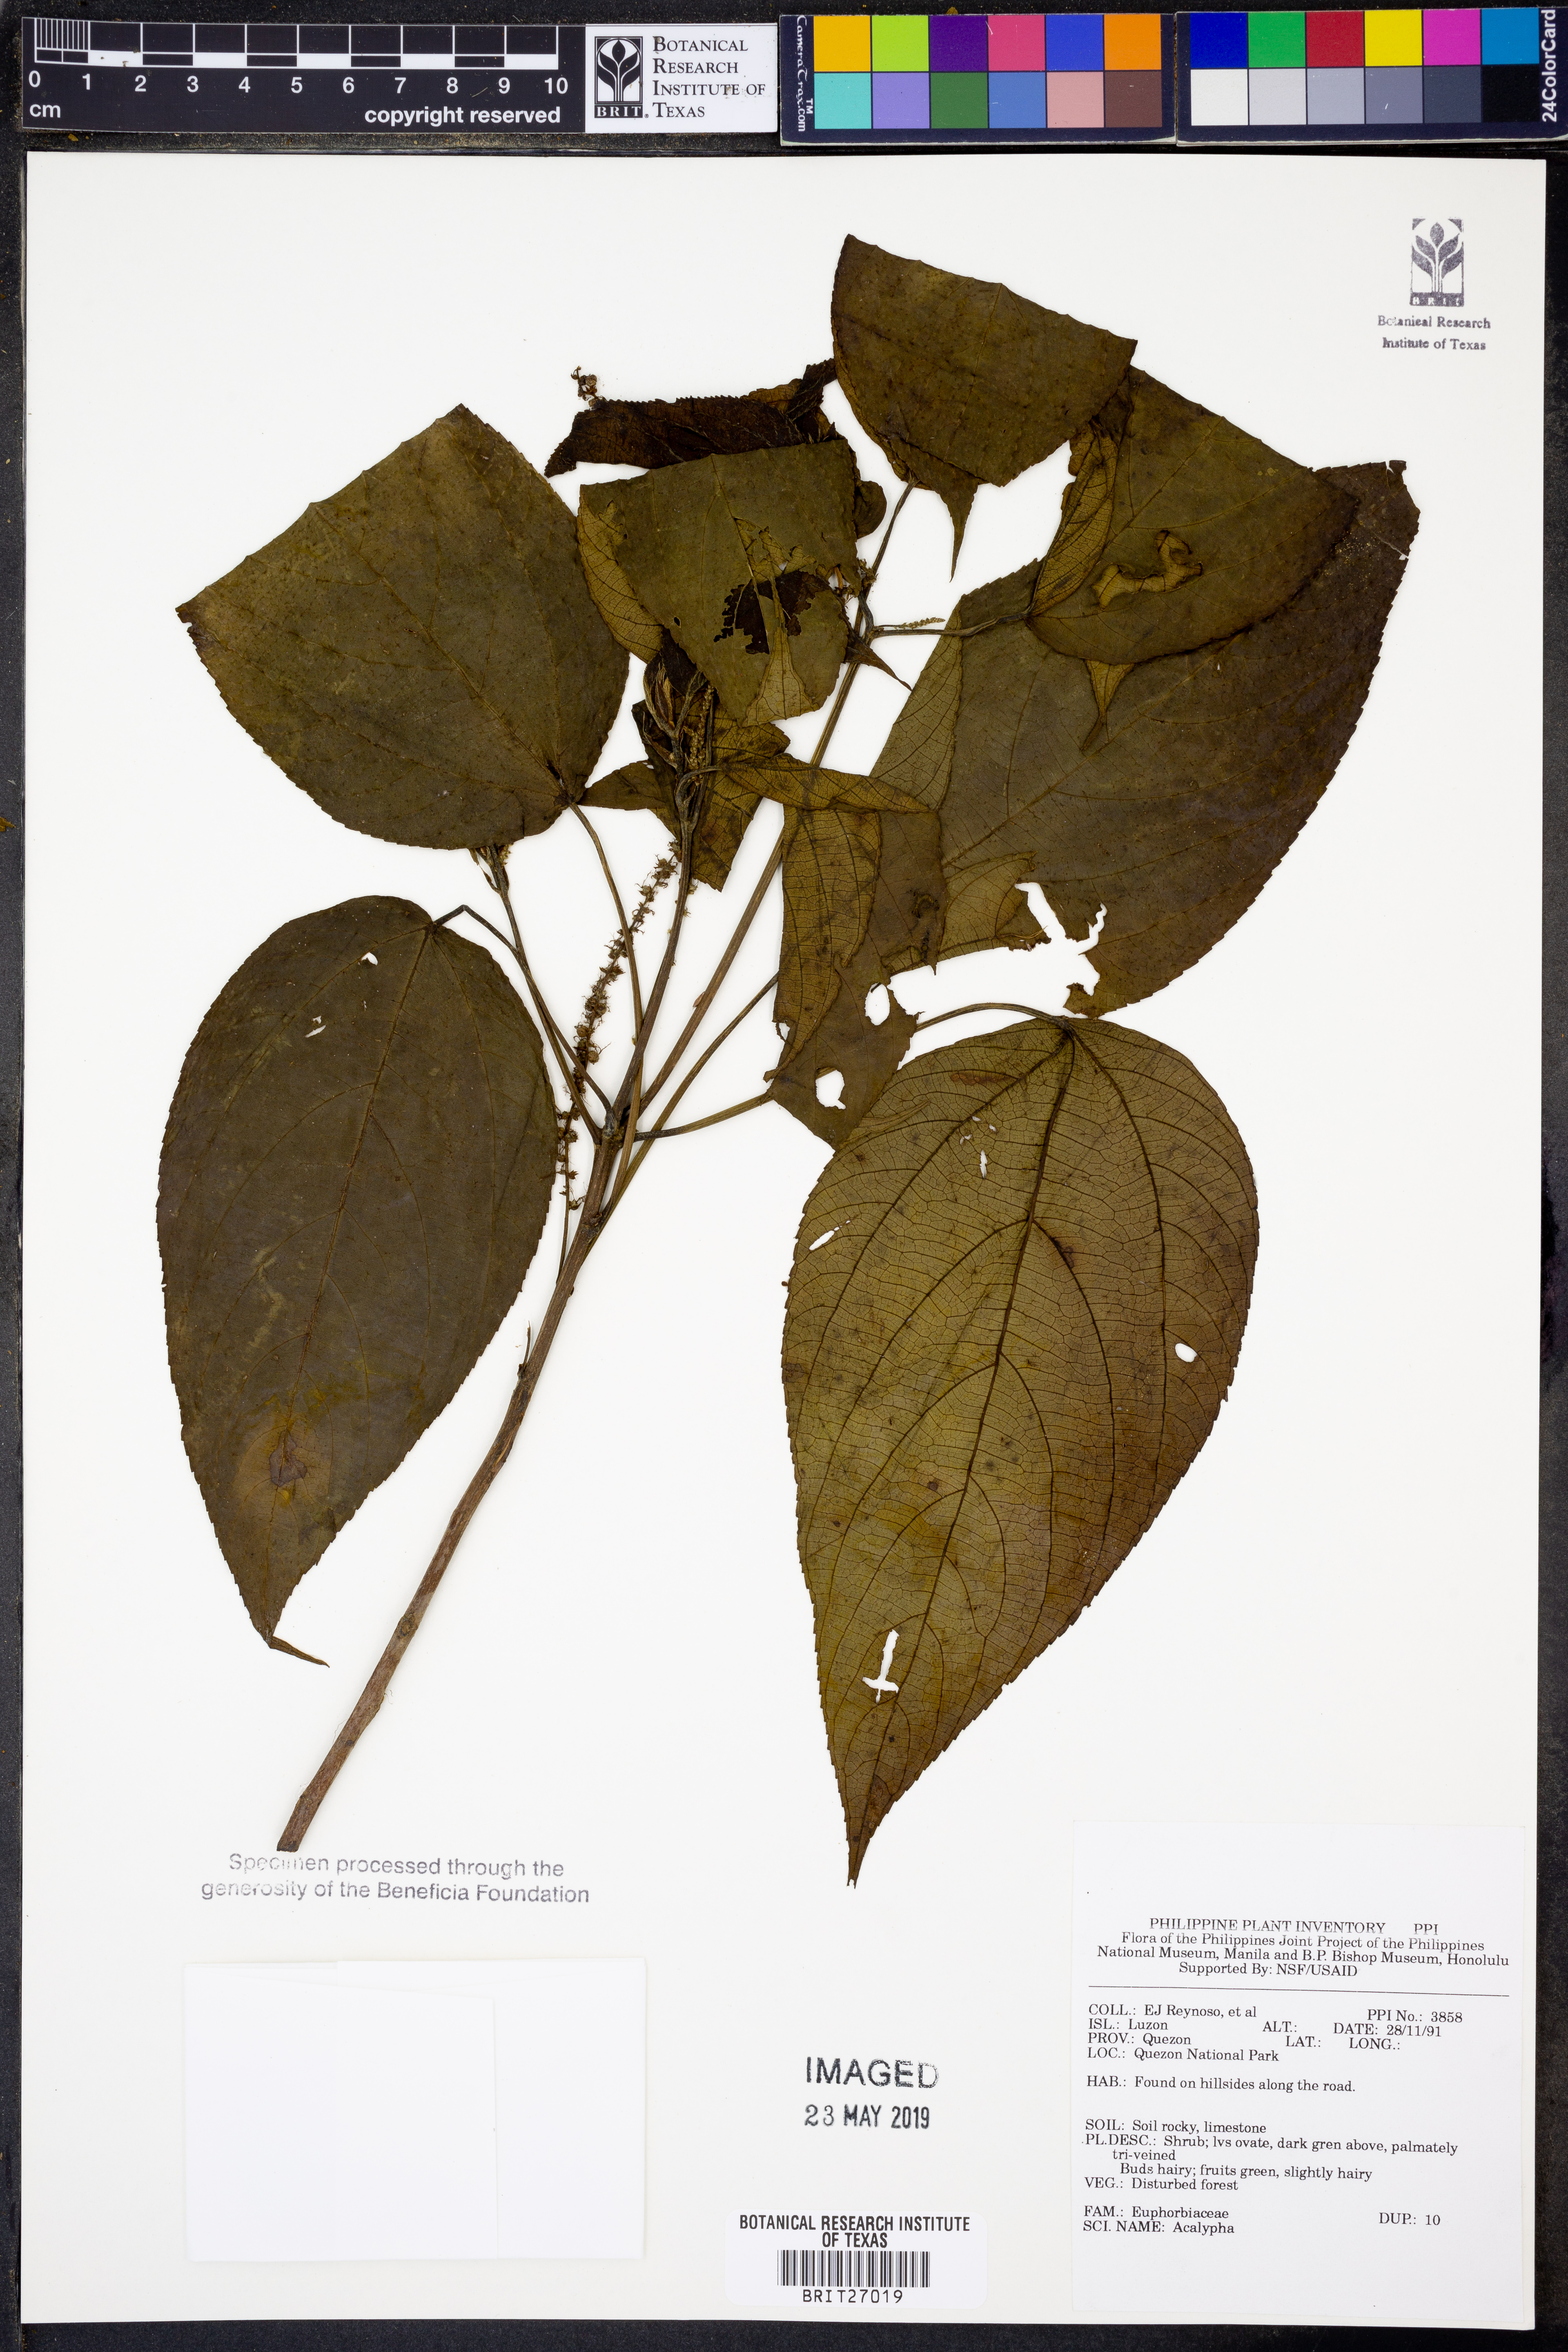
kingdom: Plantae
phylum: Tracheophyta
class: Magnoliopsida
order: Malpighiales
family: Euphorbiaceae
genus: Acalypha
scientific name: Acalypha
